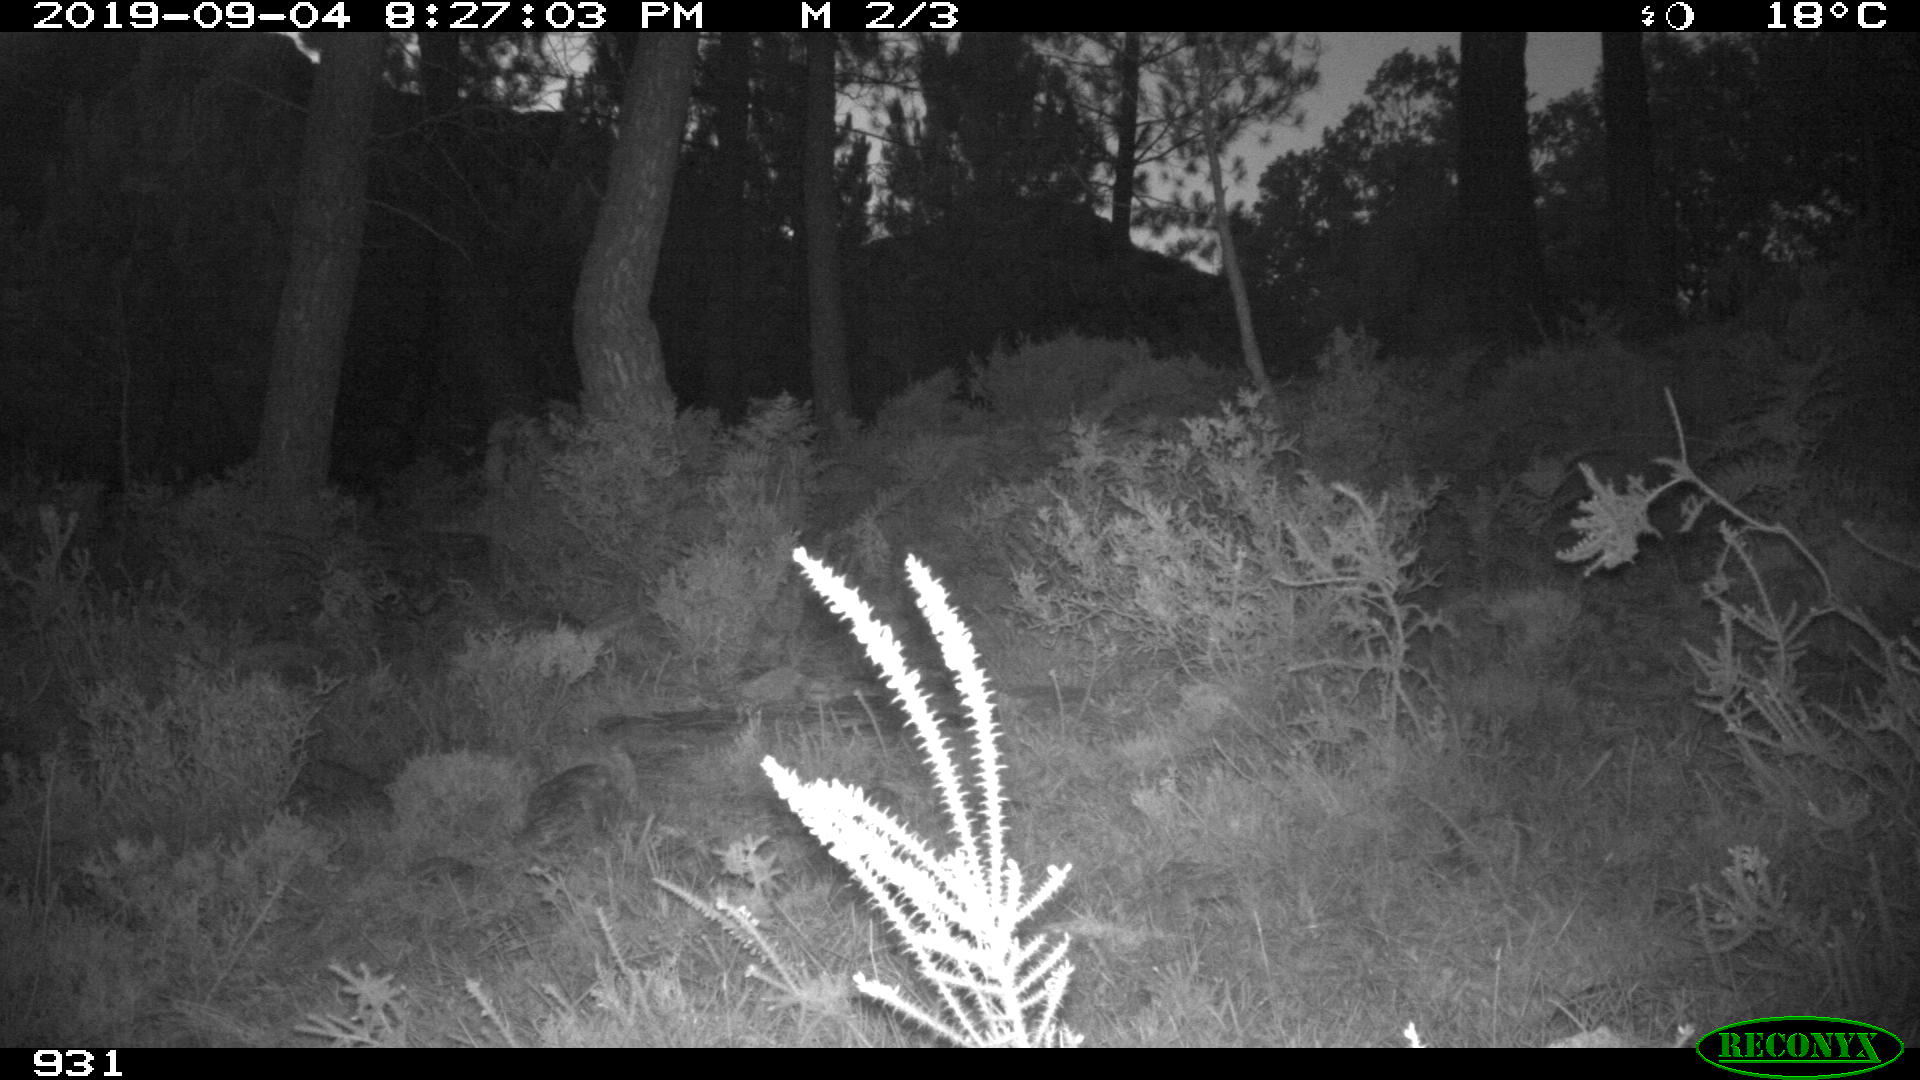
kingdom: Animalia
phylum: Chordata
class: Mammalia
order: Artiodactyla
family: Cervidae
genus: Capreolus
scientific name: Capreolus capreolus
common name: Western roe deer
